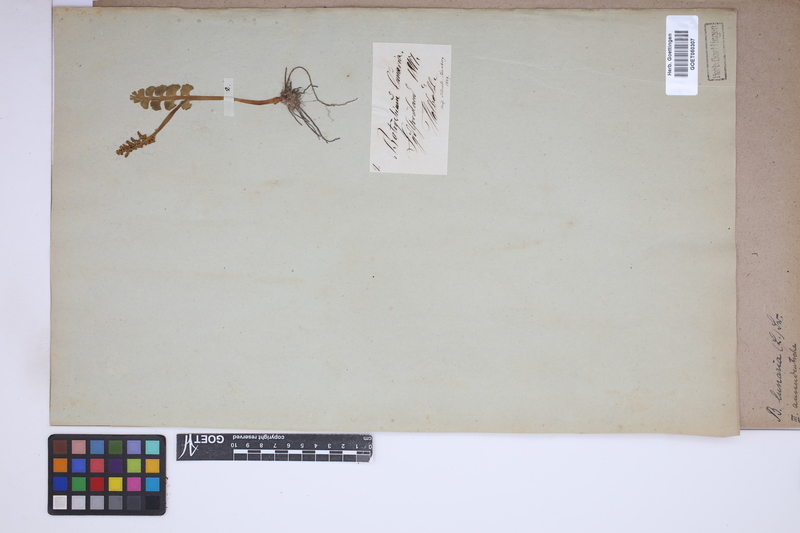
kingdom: Plantae
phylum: Tracheophyta
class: Polypodiopsida
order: Ophioglossales
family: Ophioglossaceae
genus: Botrychium
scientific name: Botrychium lunaria
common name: Moonwort
